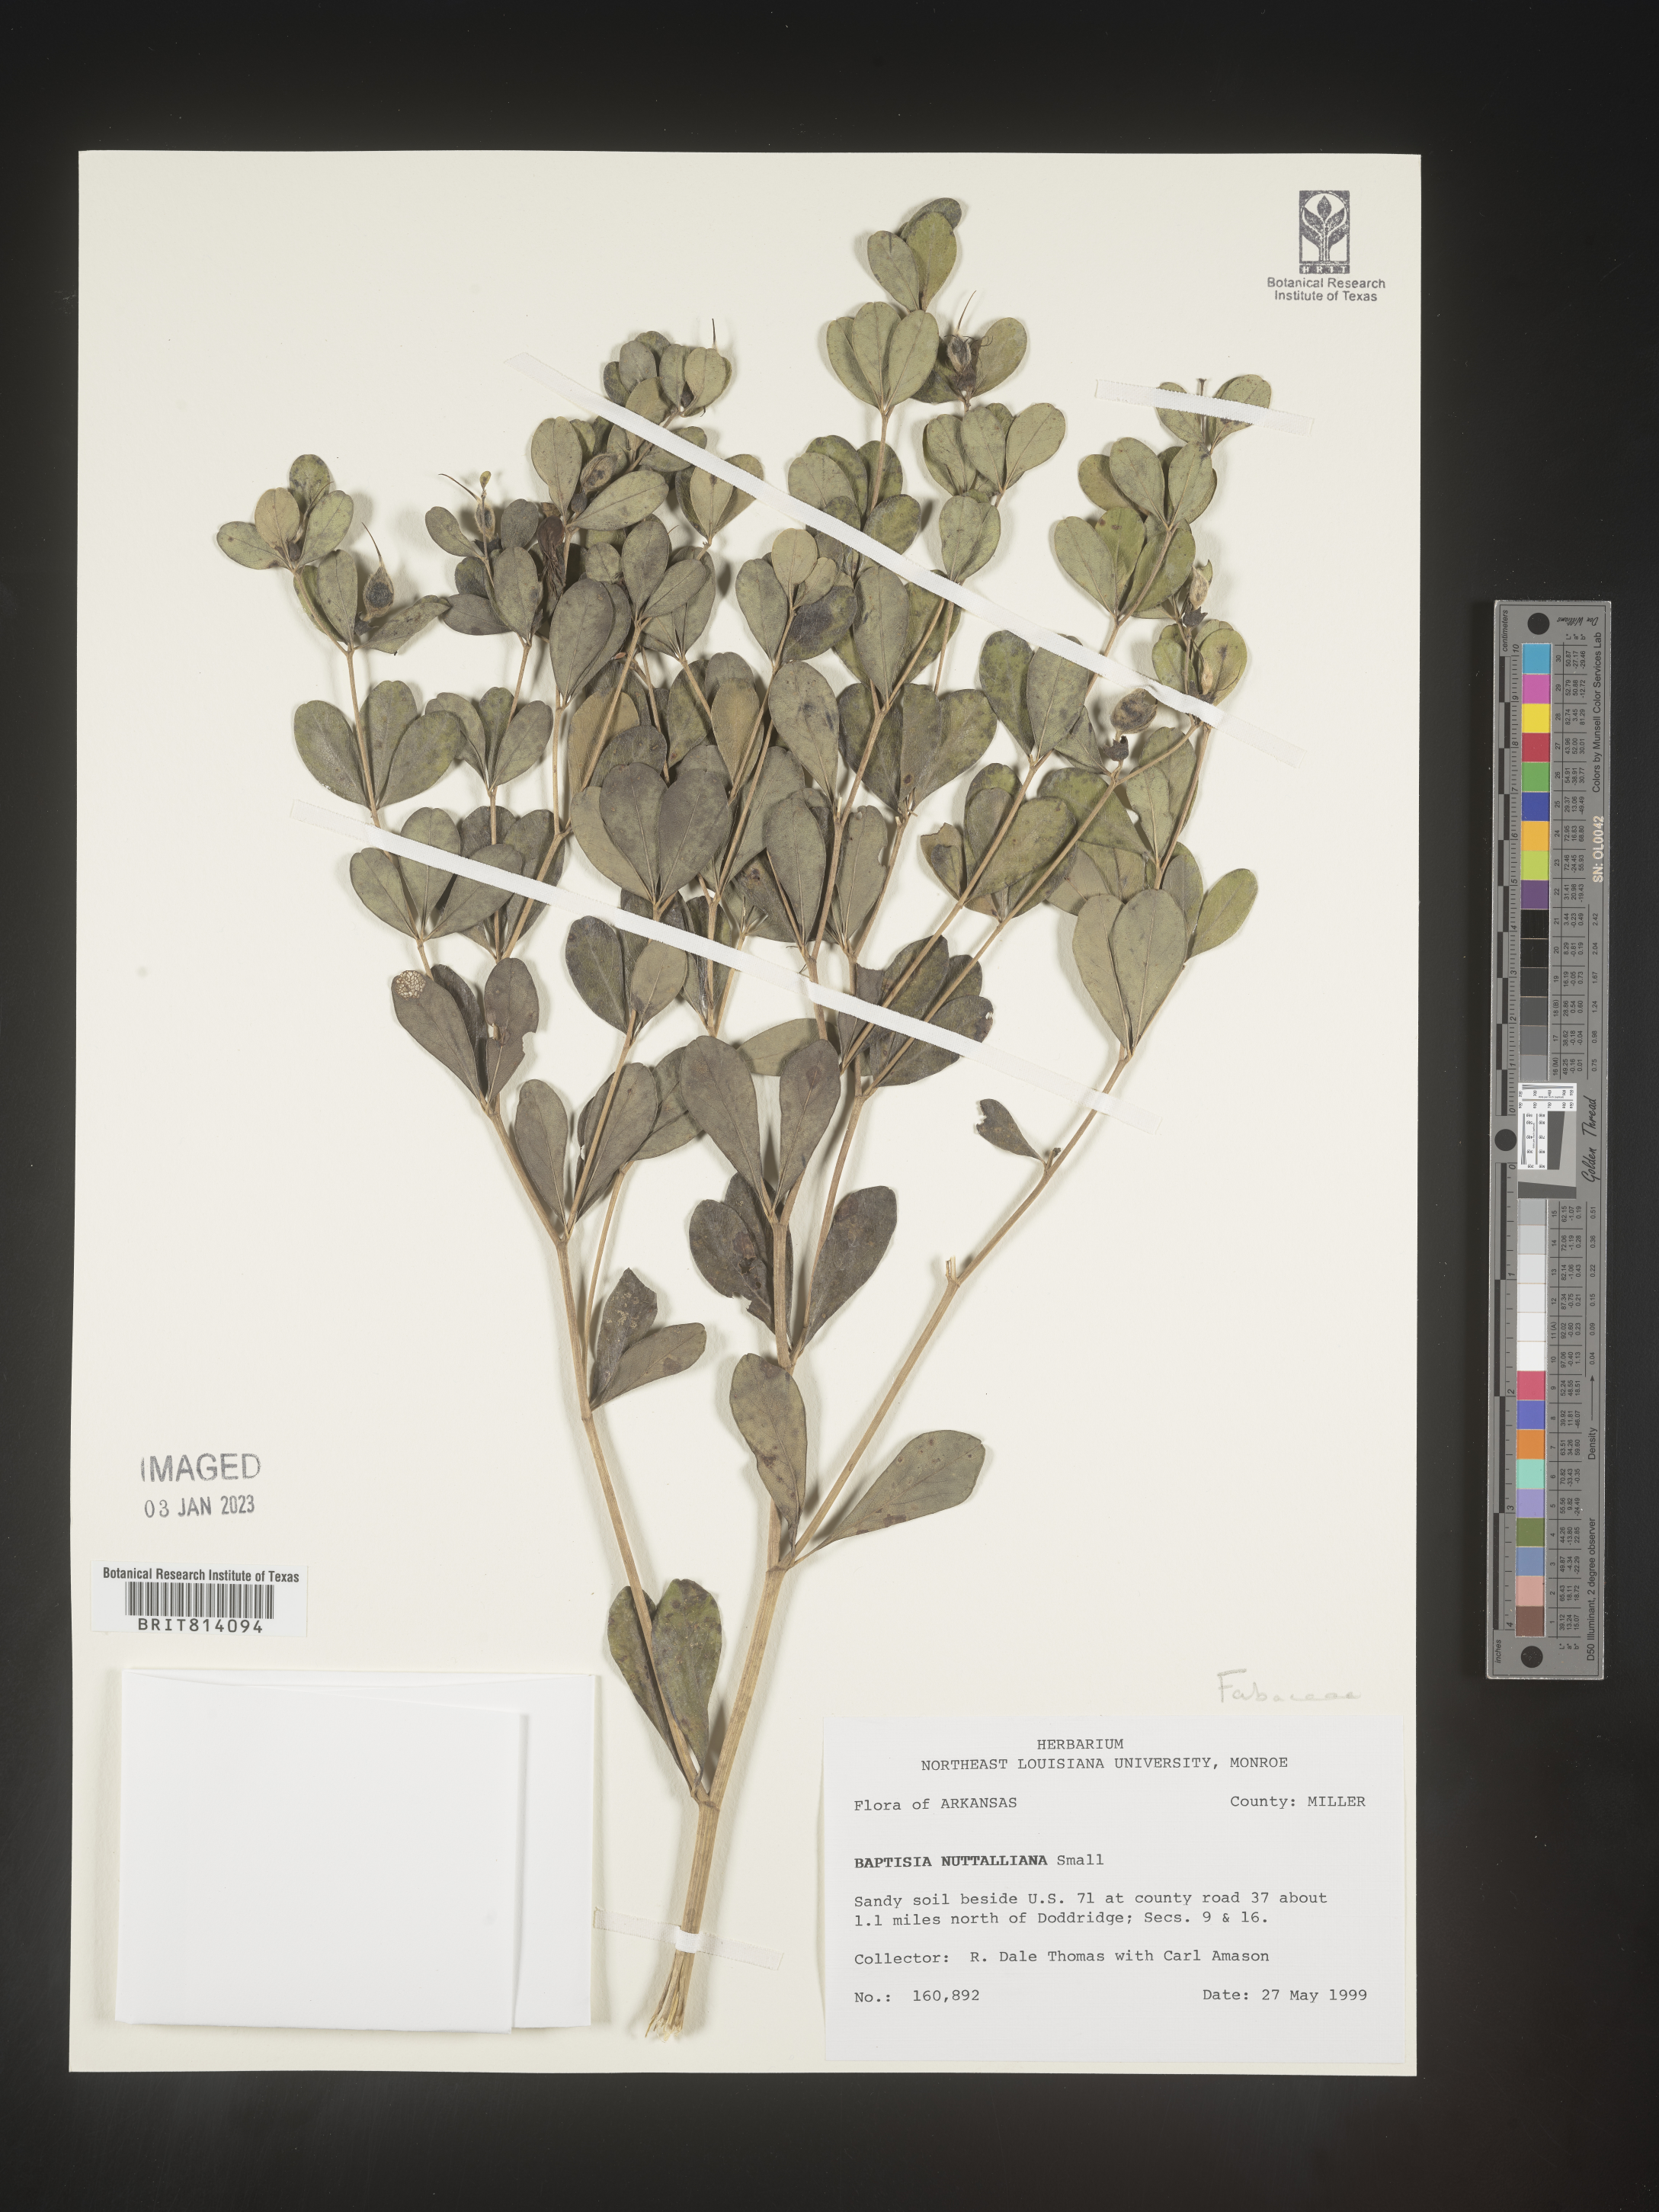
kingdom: Plantae
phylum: Tracheophyta
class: Magnoliopsida
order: Fabales
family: Fabaceae
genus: Baptisia
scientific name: Baptisia nuttalliana
